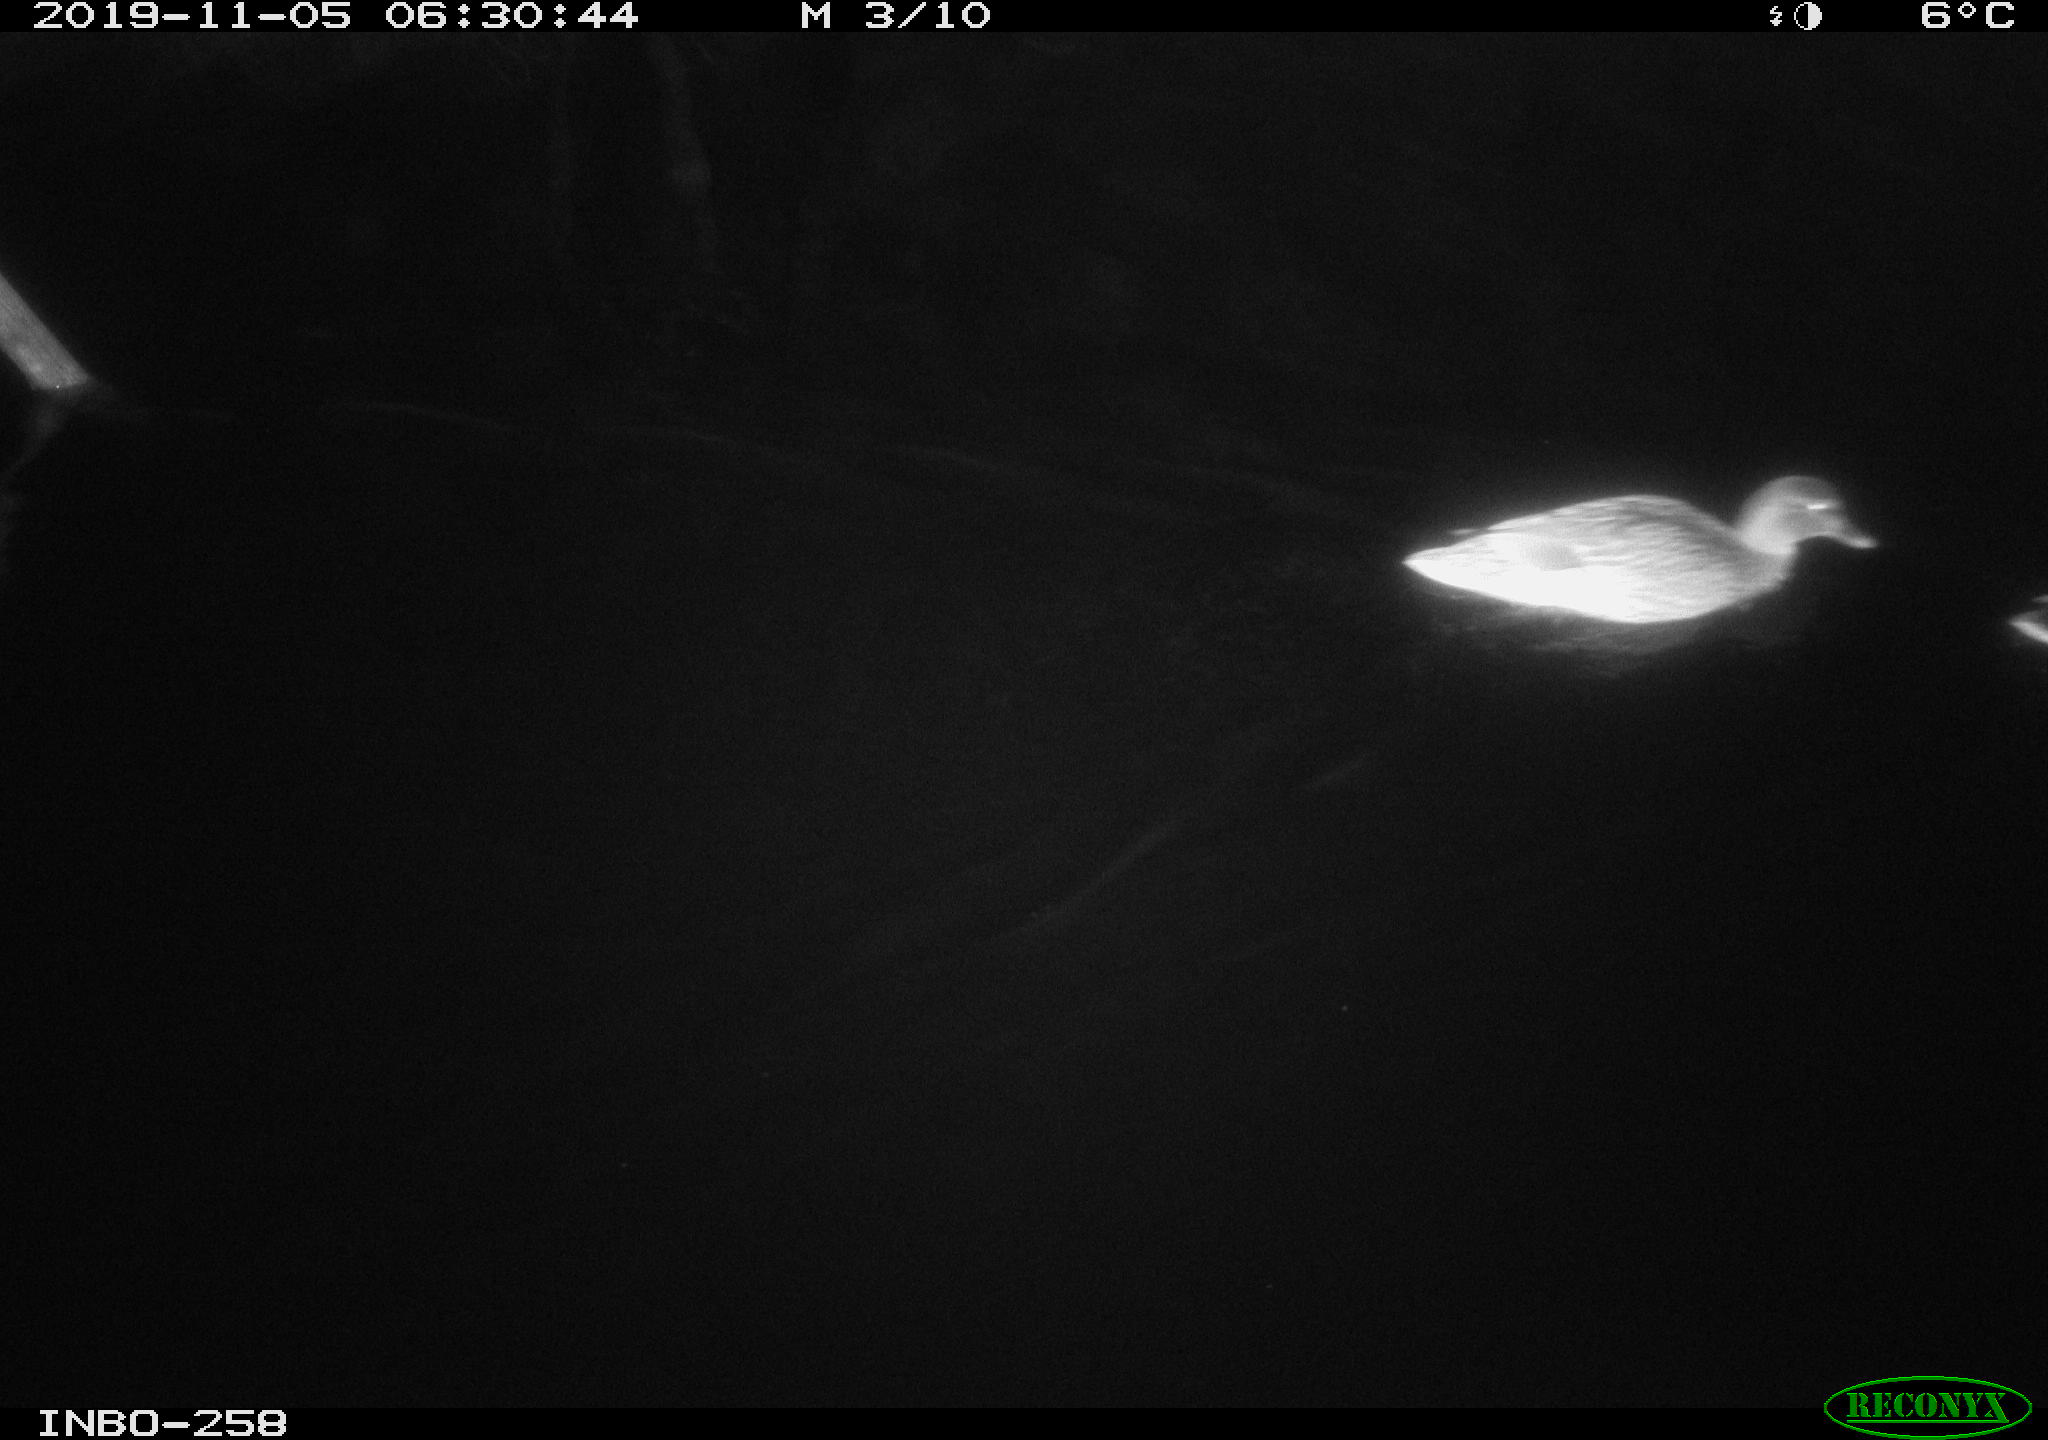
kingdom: Animalia
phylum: Chordata
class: Aves
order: Anseriformes
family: Anatidae
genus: Anas
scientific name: Anas platyrhynchos
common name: Mallard
